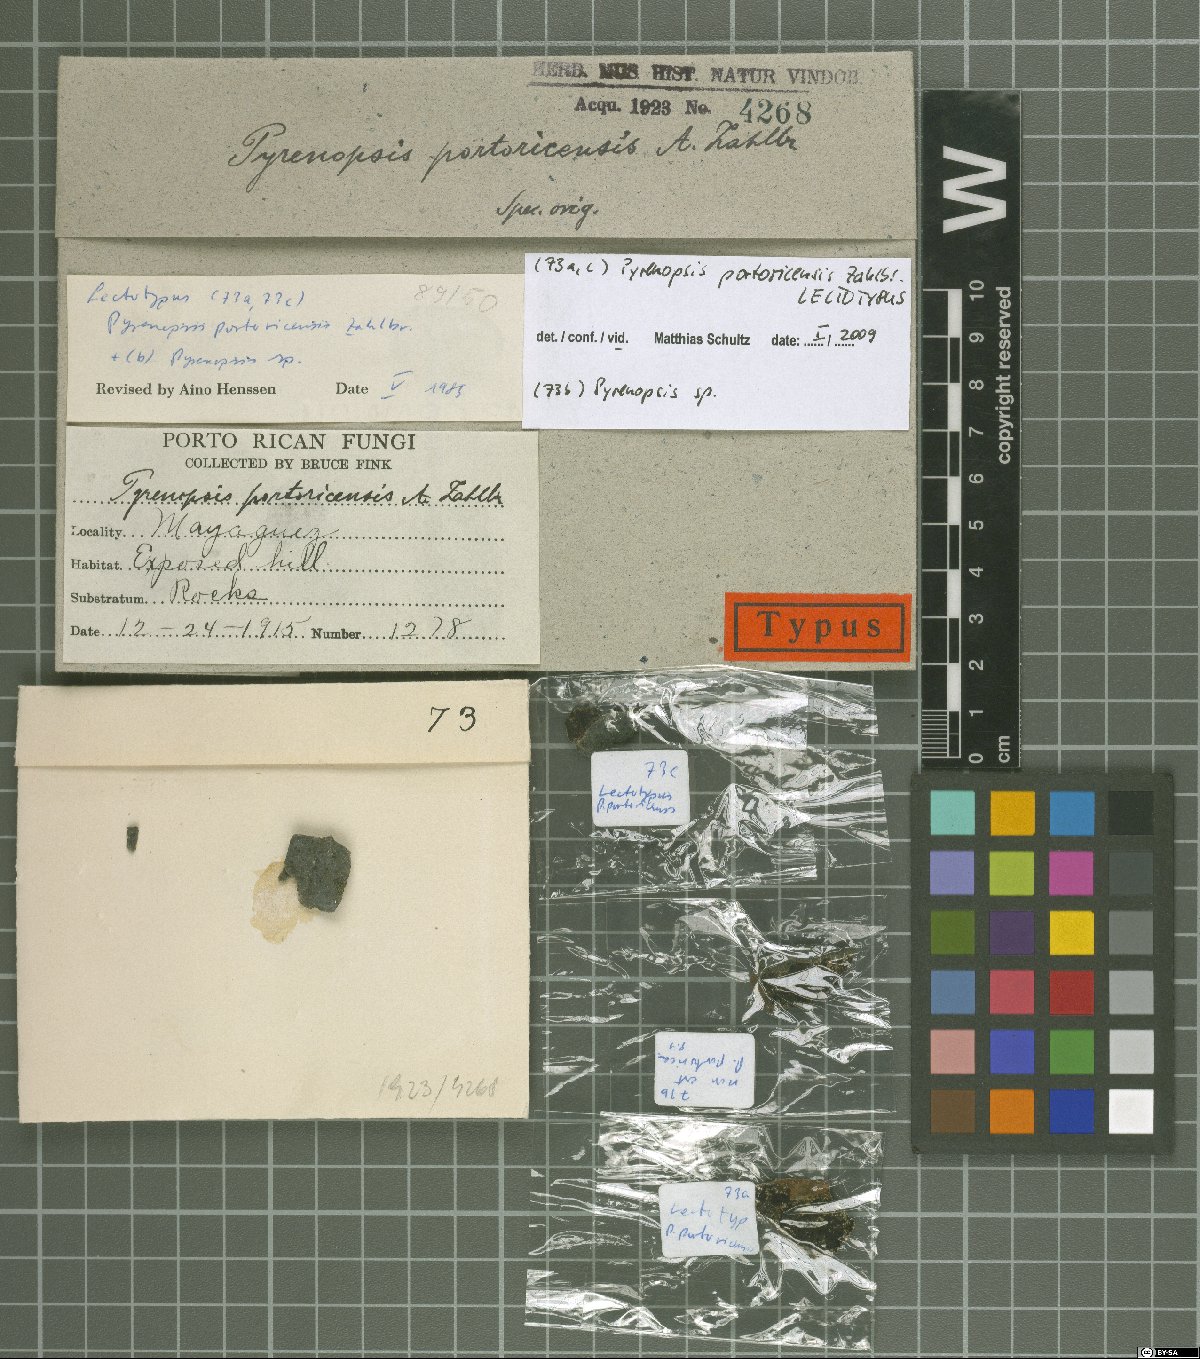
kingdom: Fungi
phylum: Ascomycota
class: Lichinomycetes
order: Lichinales
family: Lichinaceae
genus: Pyrenopsis
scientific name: Pyrenopsis portoricensis
